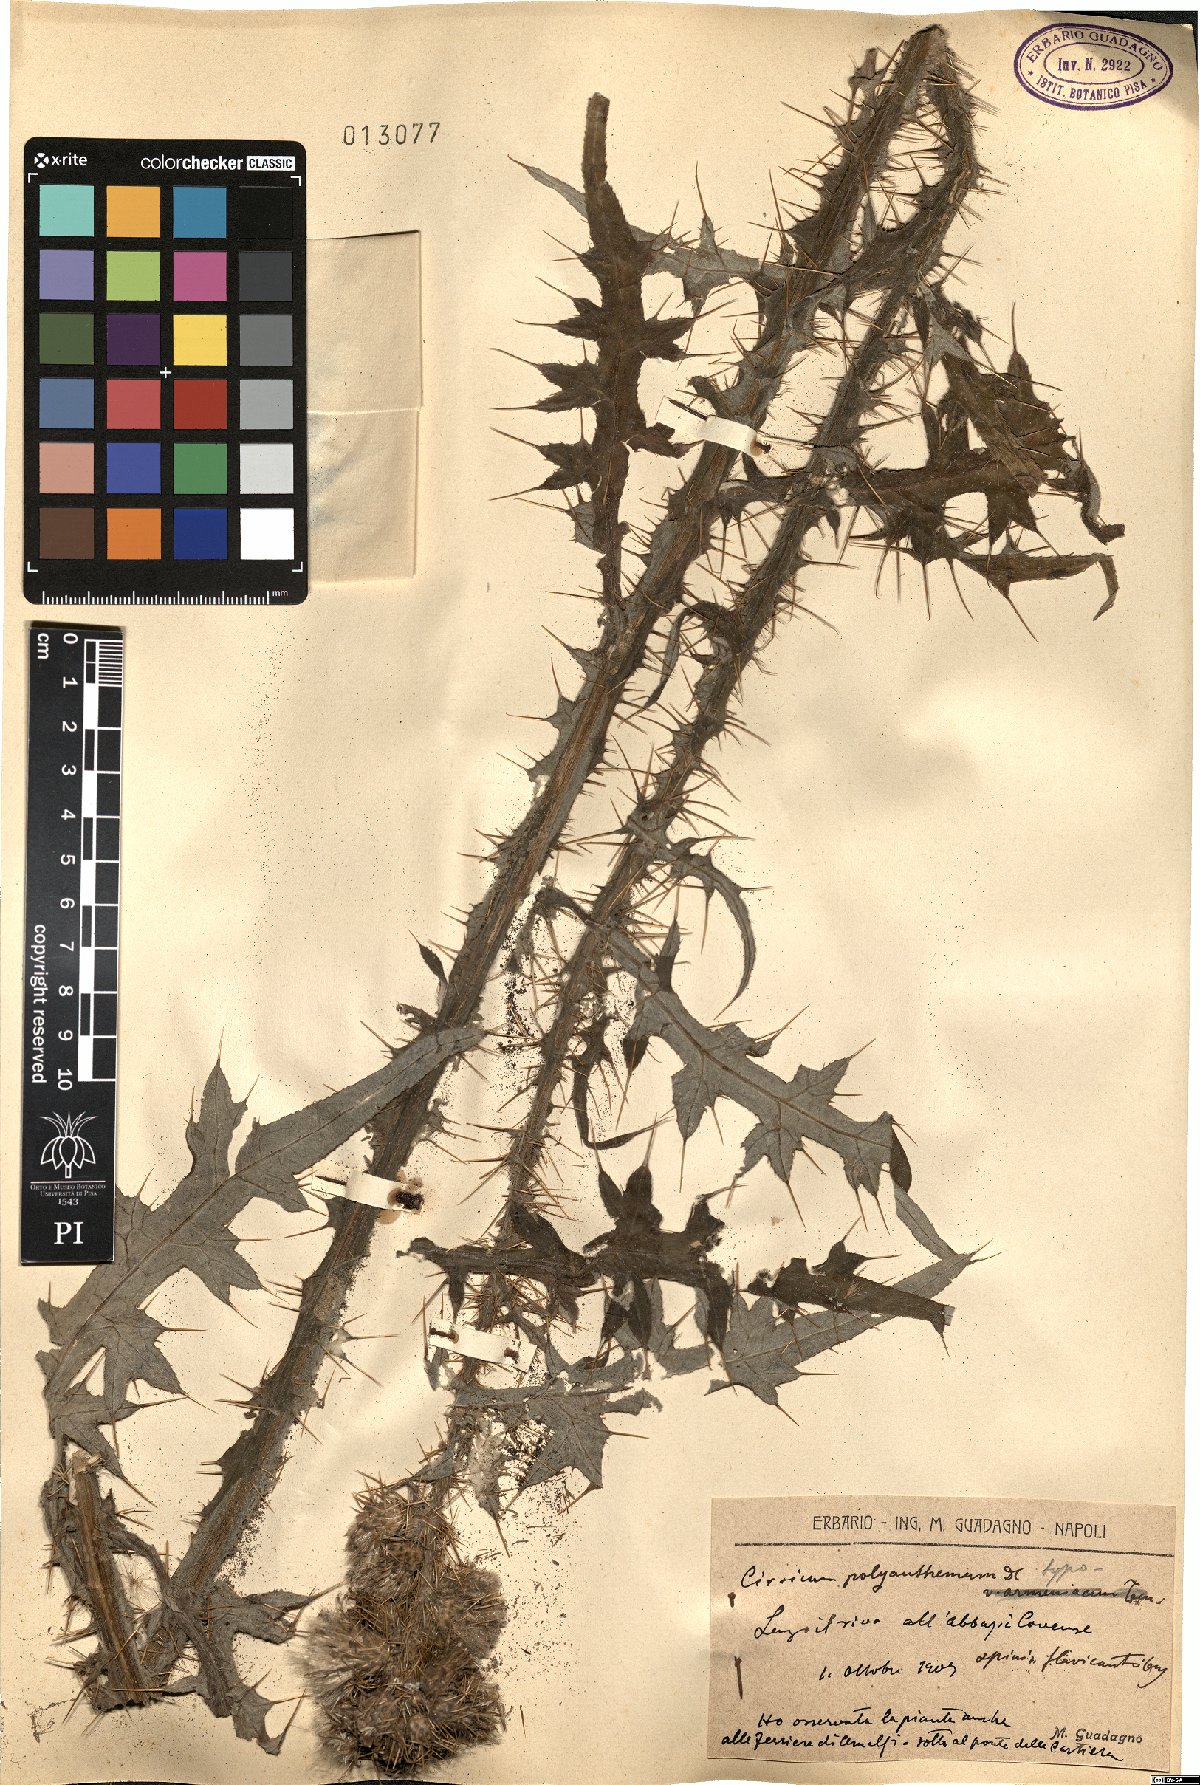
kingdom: Plantae
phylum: Tracheophyta
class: Magnoliopsida
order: Asterales
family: Asteraceae
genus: Carduus
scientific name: Carduus collinus
